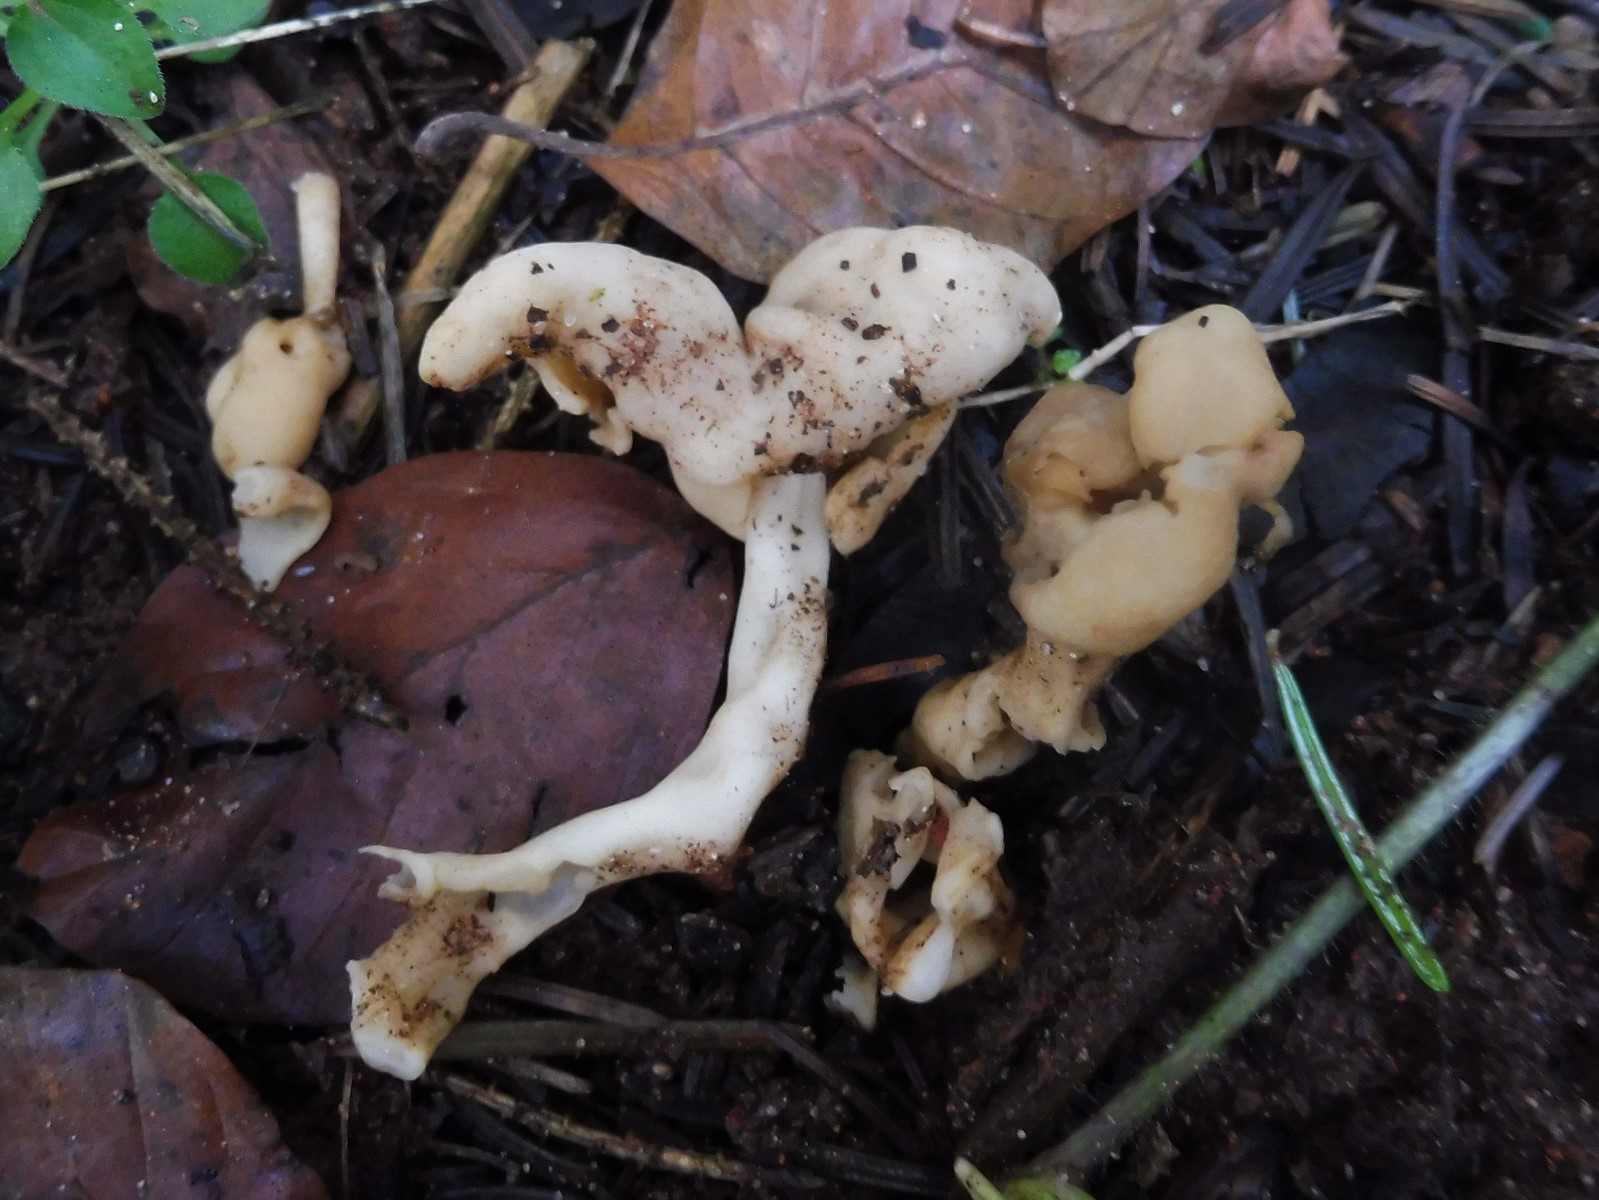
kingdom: Fungi
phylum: Ascomycota
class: Pezizomycetes
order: Pezizales
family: Helvellaceae
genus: Helvella
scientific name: Helvella elastica
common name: elastik-foldhat
